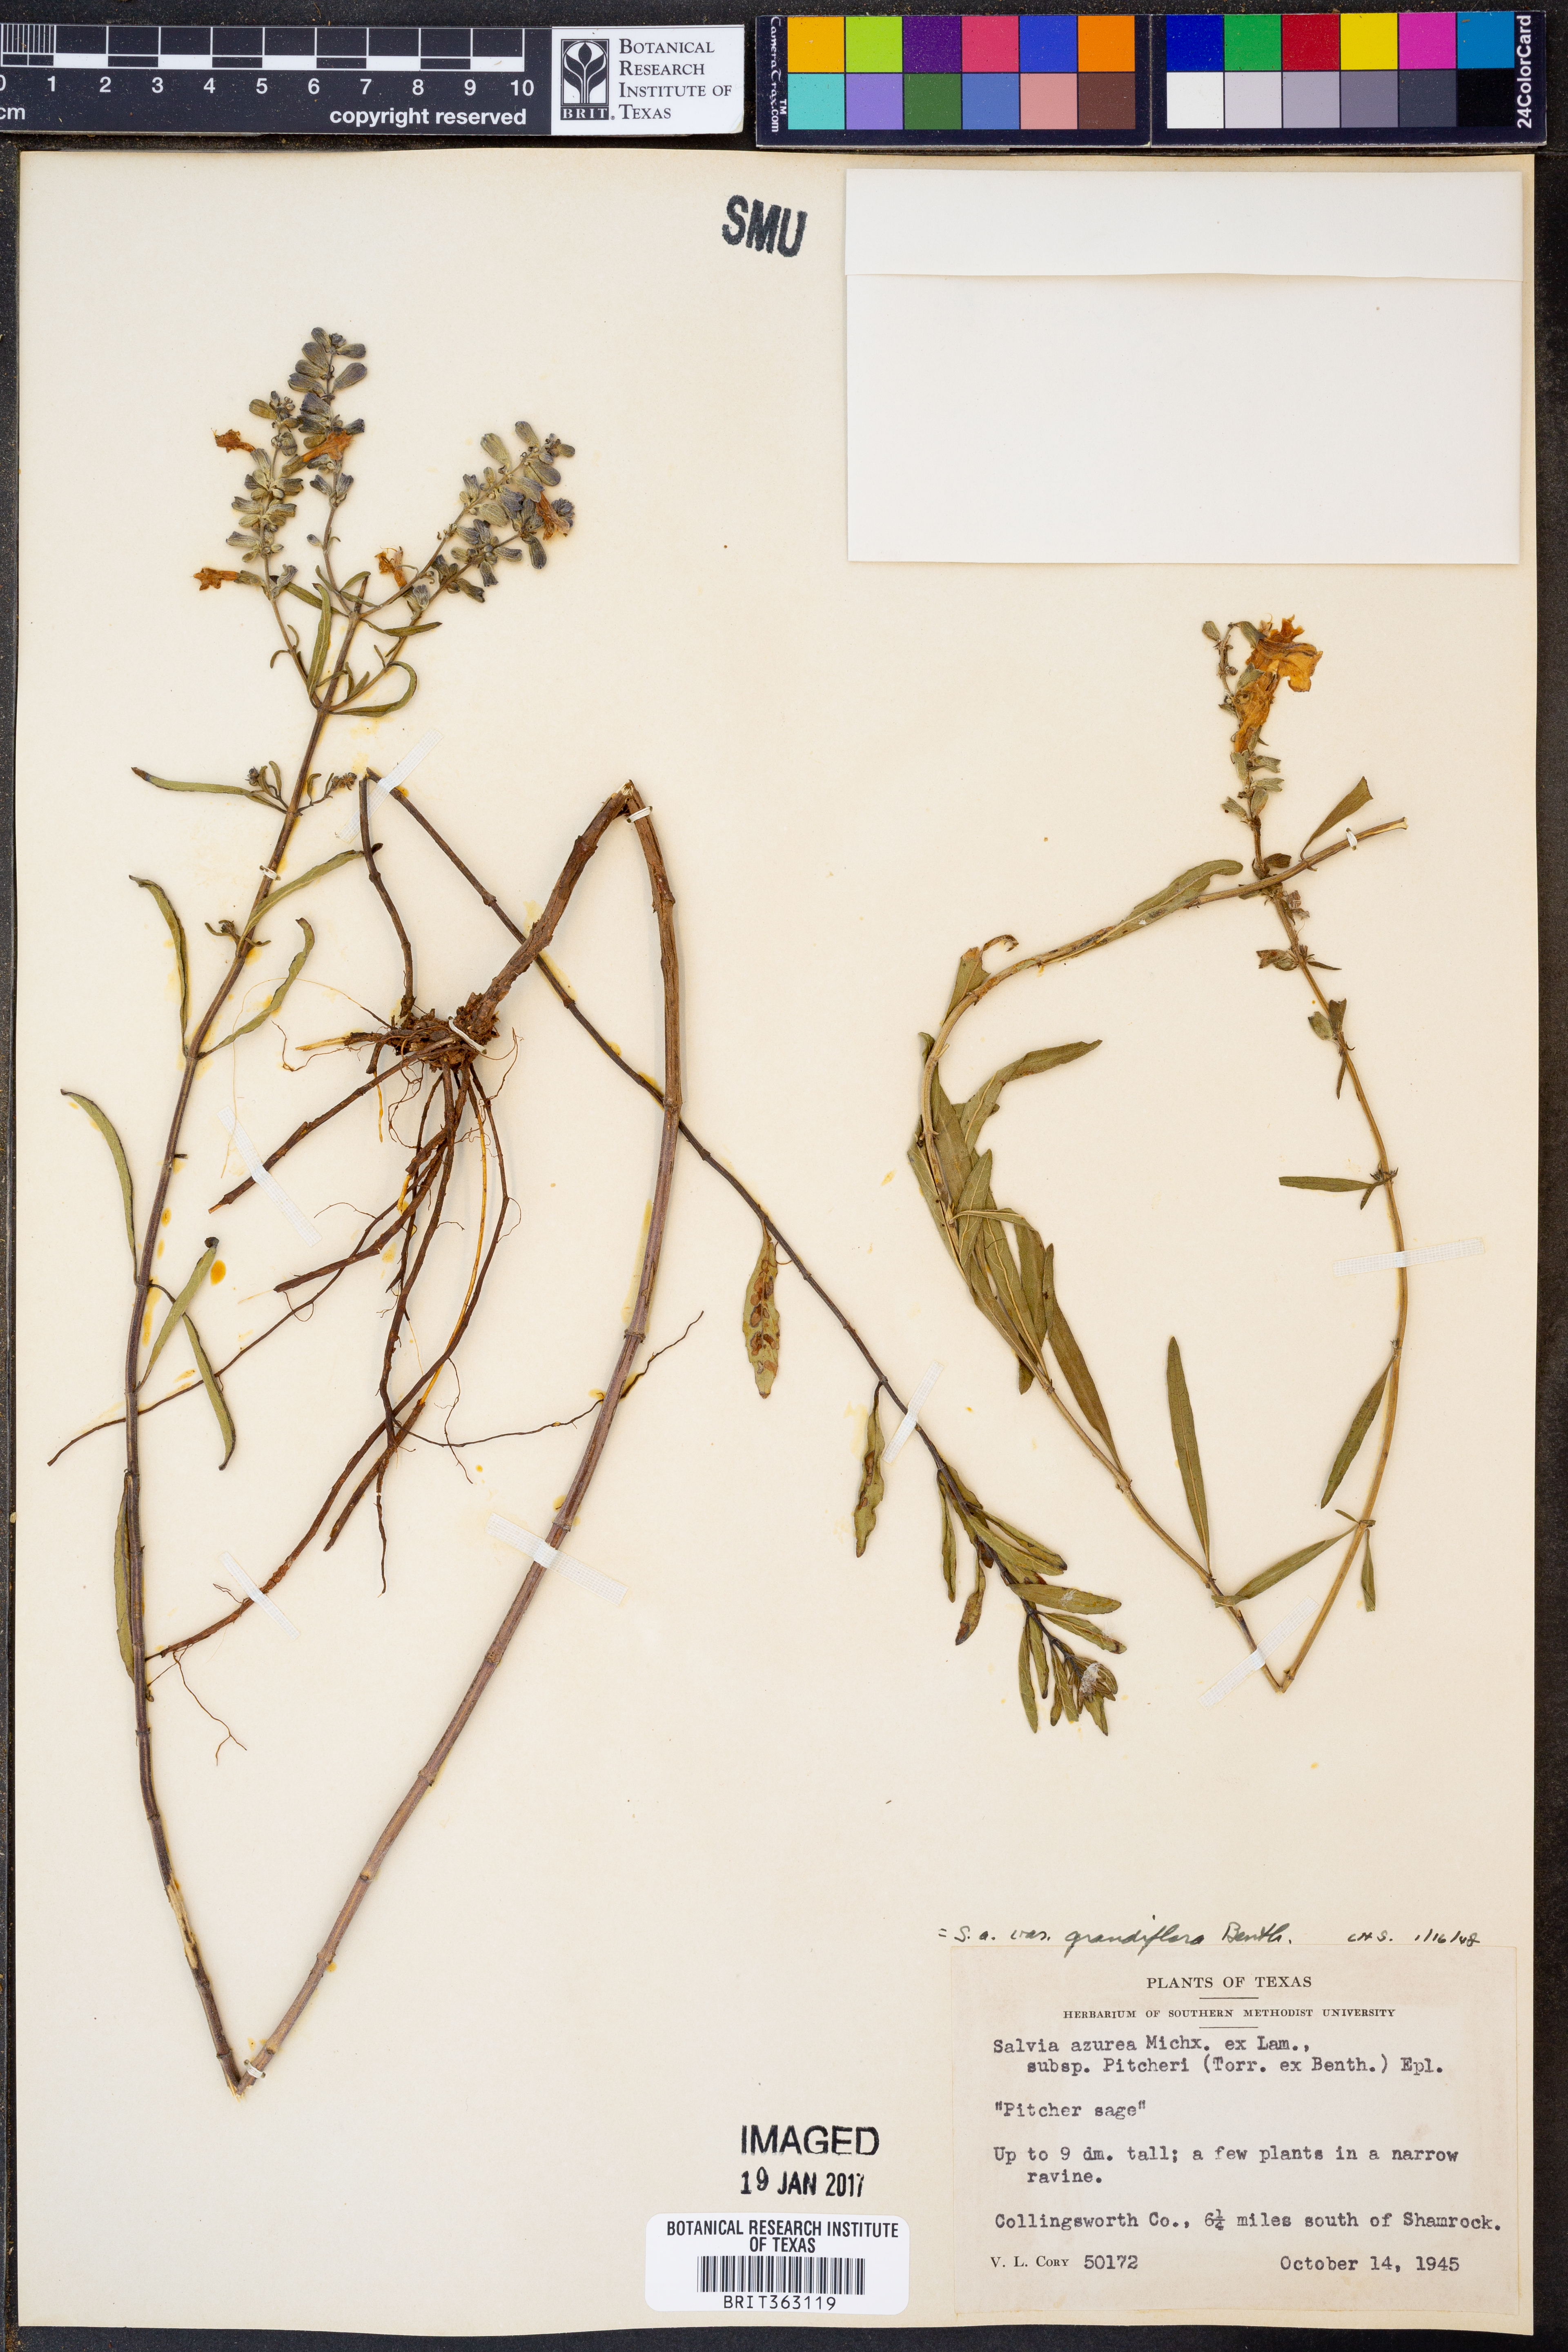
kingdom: Plantae
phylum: Tracheophyta
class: Magnoliopsida
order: Lamiales
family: Lamiaceae
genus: Salvia
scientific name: Salvia azurea
